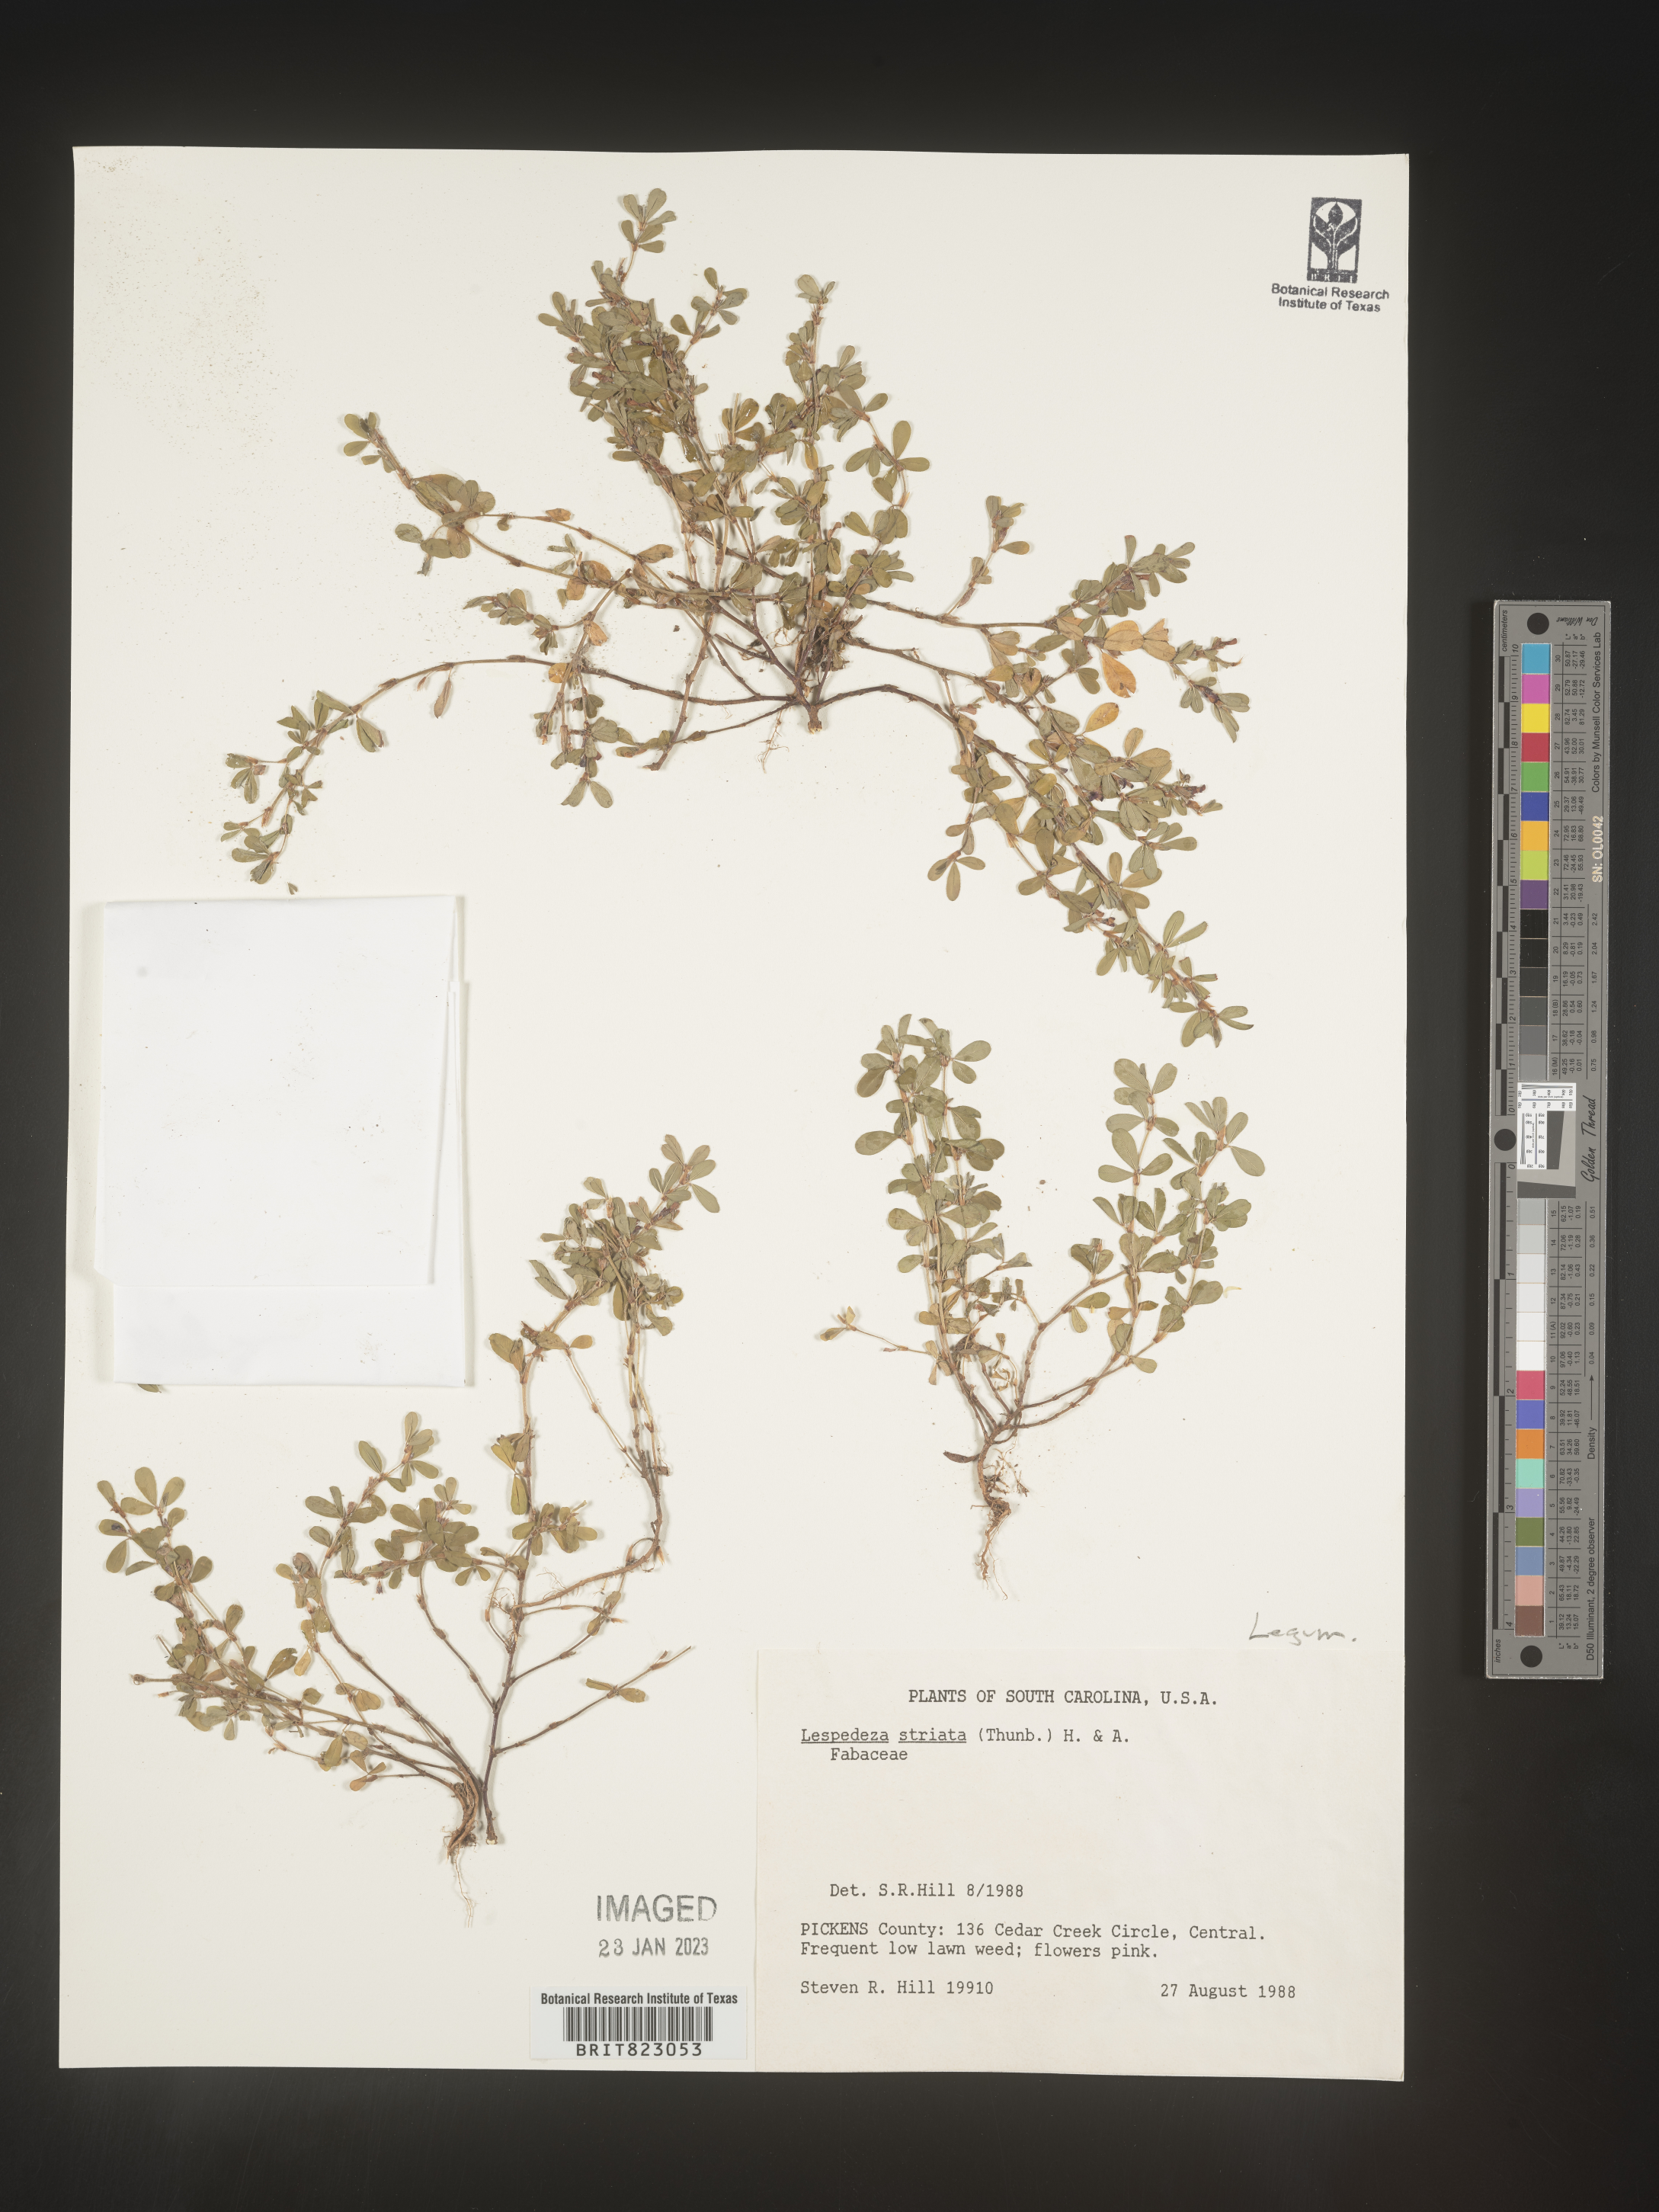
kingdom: Plantae
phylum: Tracheophyta
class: Magnoliopsida
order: Fabales
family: Fabaceae
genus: Kummerowia
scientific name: Kummerowia striata
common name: Japanese clover
